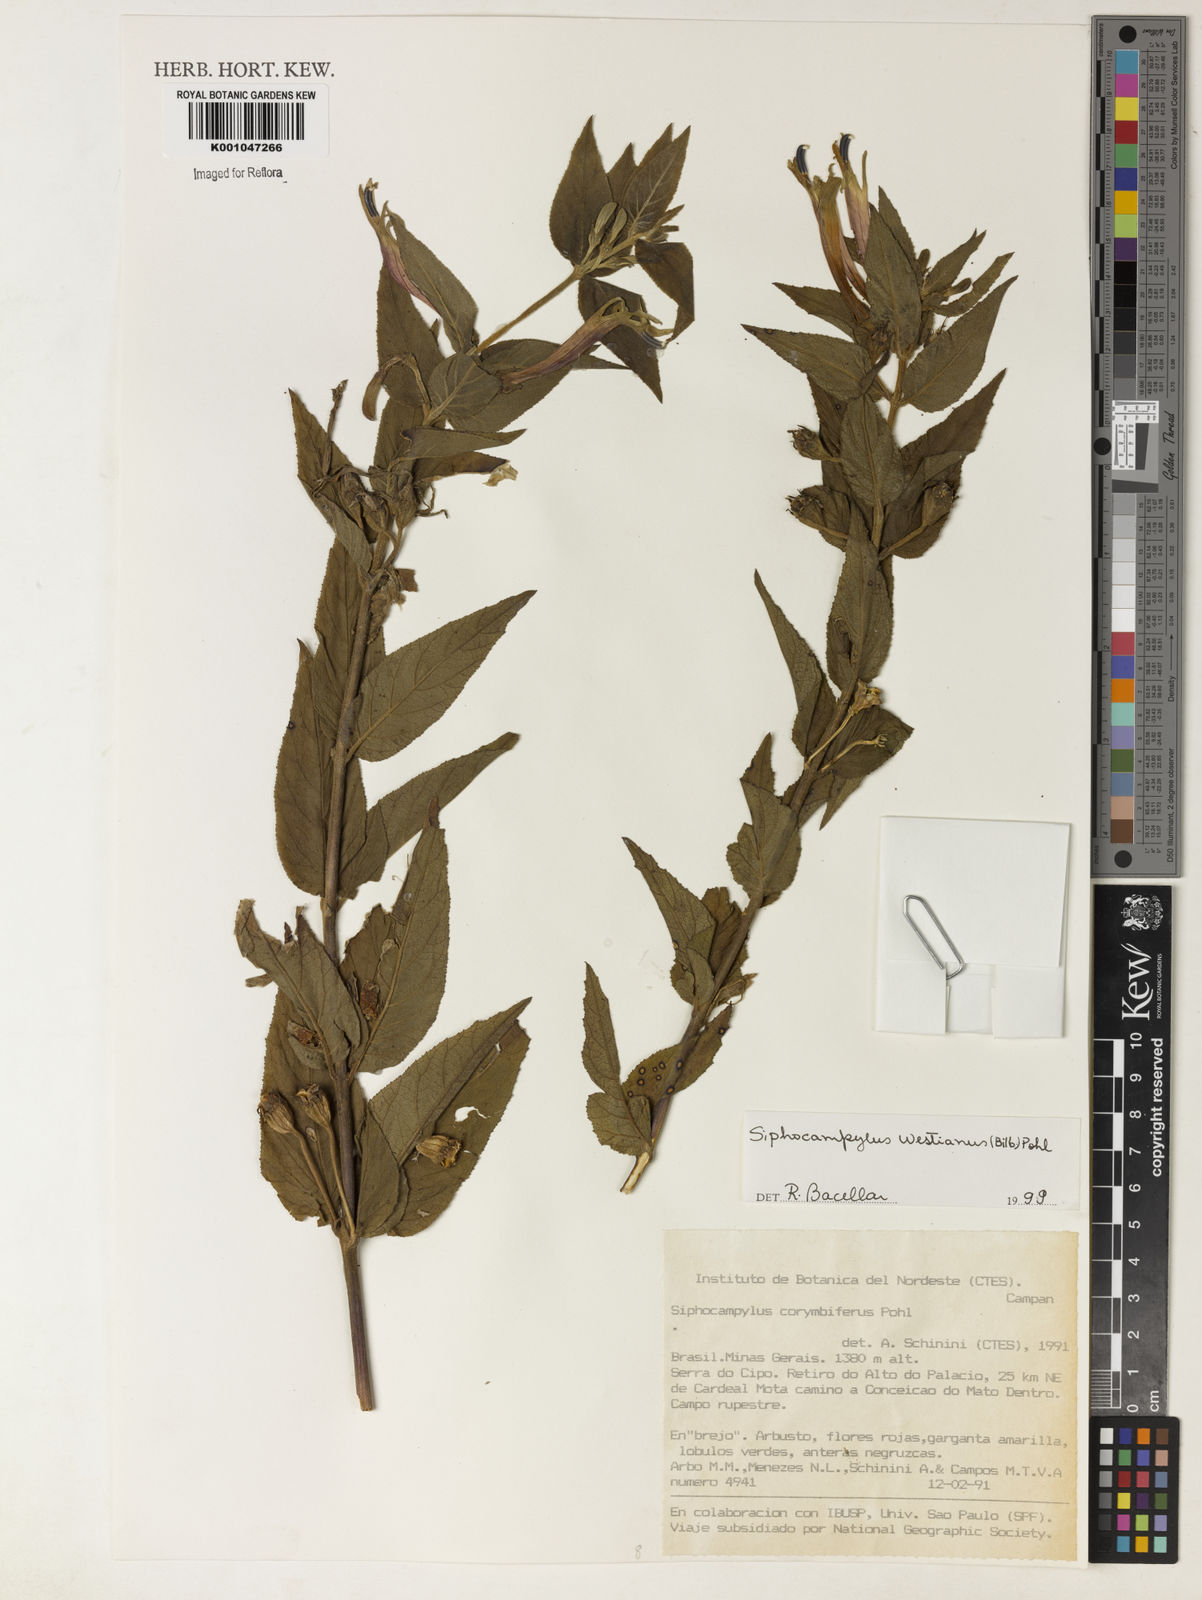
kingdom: Plantae
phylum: Tracheophyta
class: Magnoliopsida
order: Asterales
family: Campanulaceae
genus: Siphocampylus
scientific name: Siphocampylus westinianus
